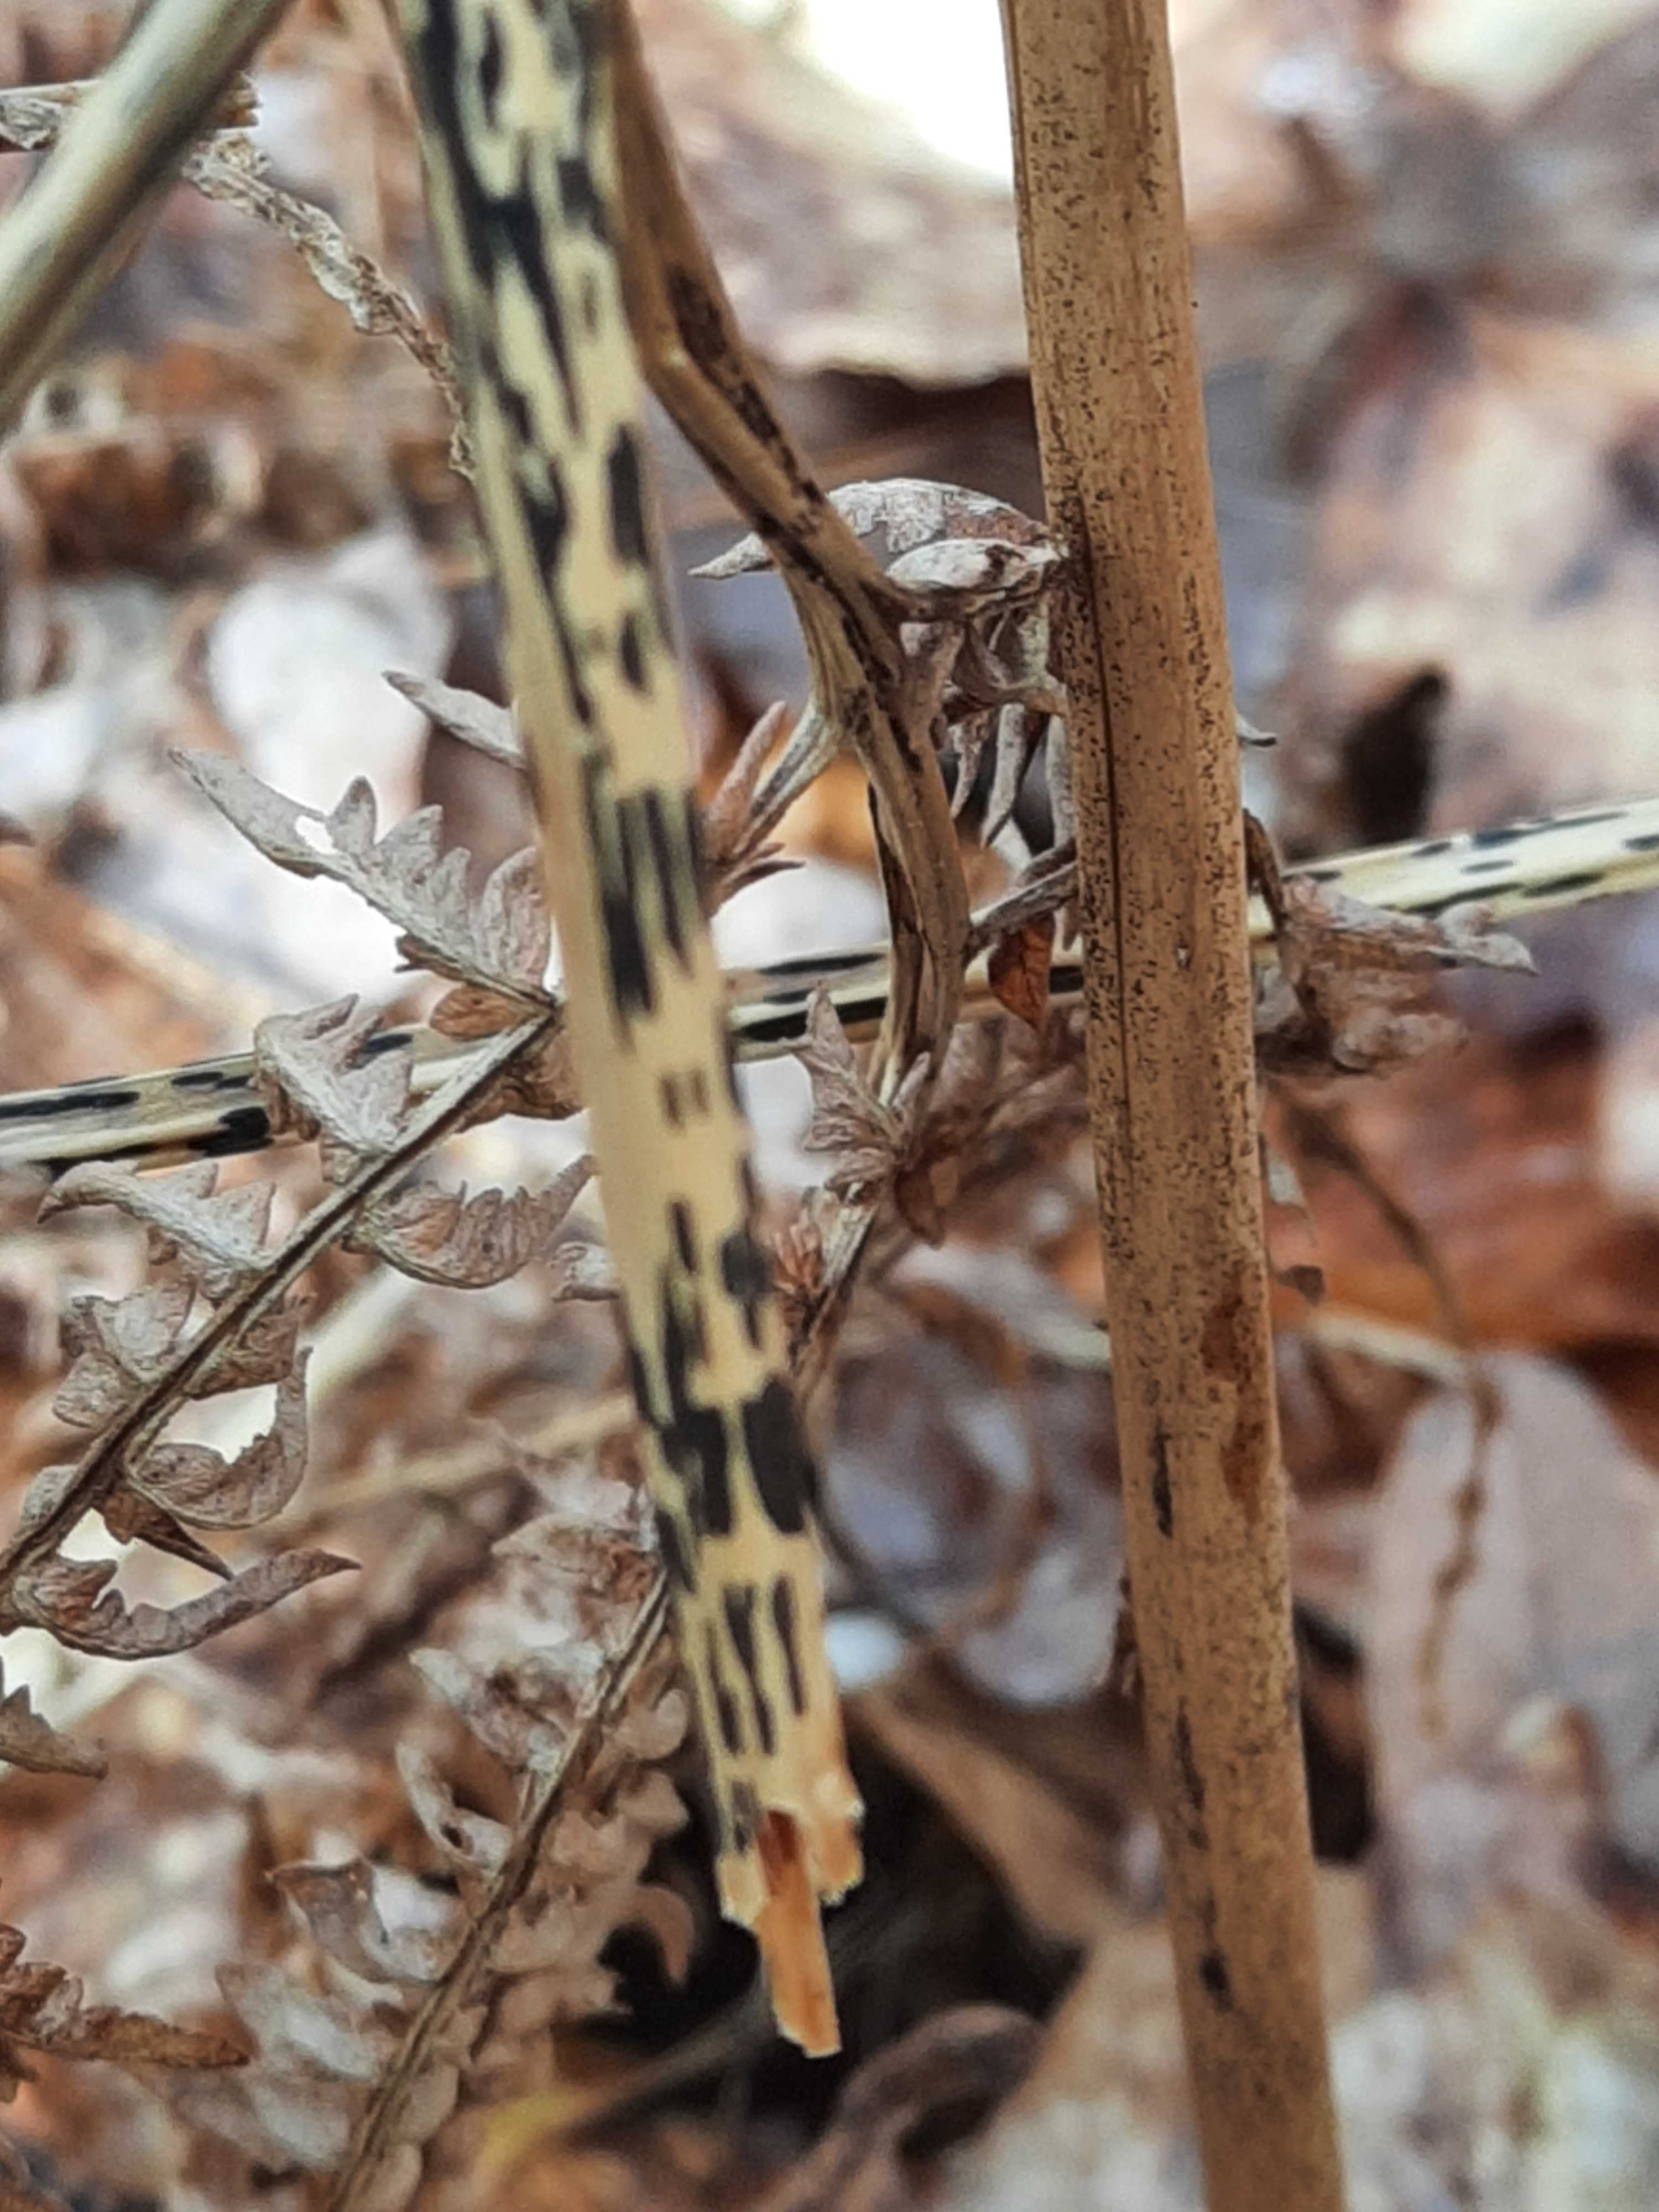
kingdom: Fungi
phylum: Ascomycota
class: Dothideomycetes
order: Pleosporales
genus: Rhopographus
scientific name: Rhopographus filicinus
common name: Bracken map
